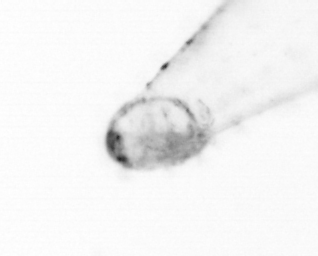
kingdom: Animalia
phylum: Chaetognatha
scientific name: Chaetognatha
